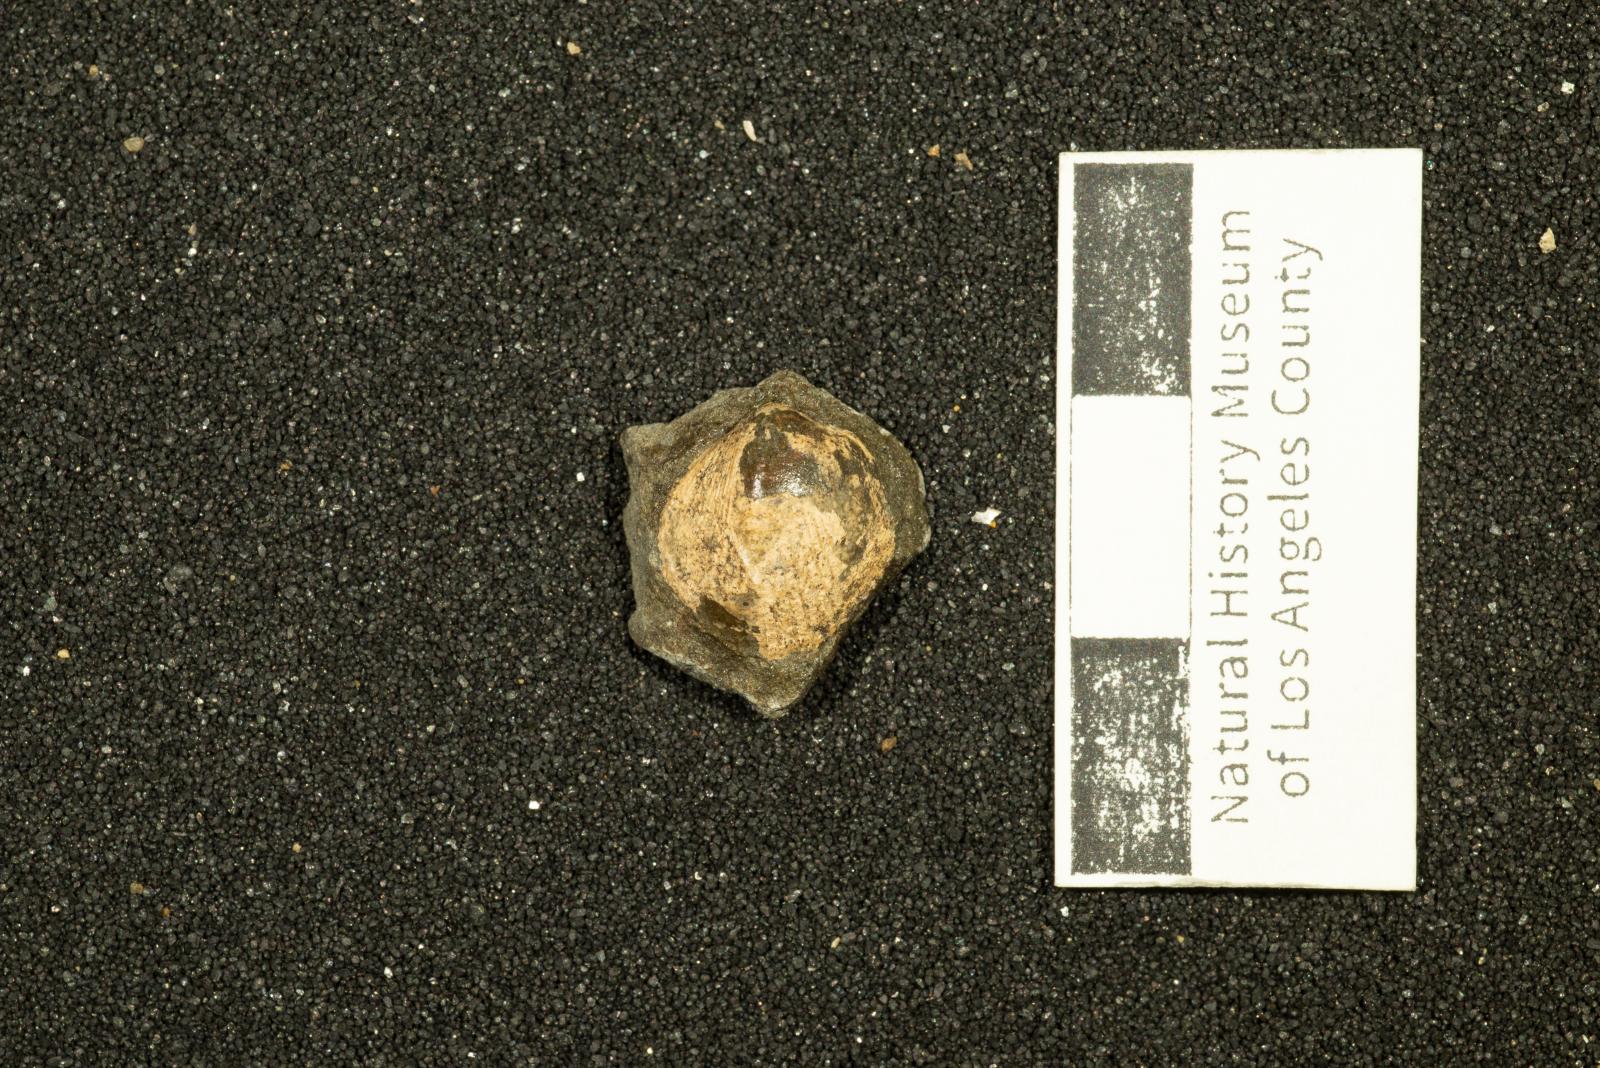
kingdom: Animalia
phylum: Mollusca
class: Bivalvia
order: Nuculida
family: Nuculidae
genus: Acila
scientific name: Acila demessa
